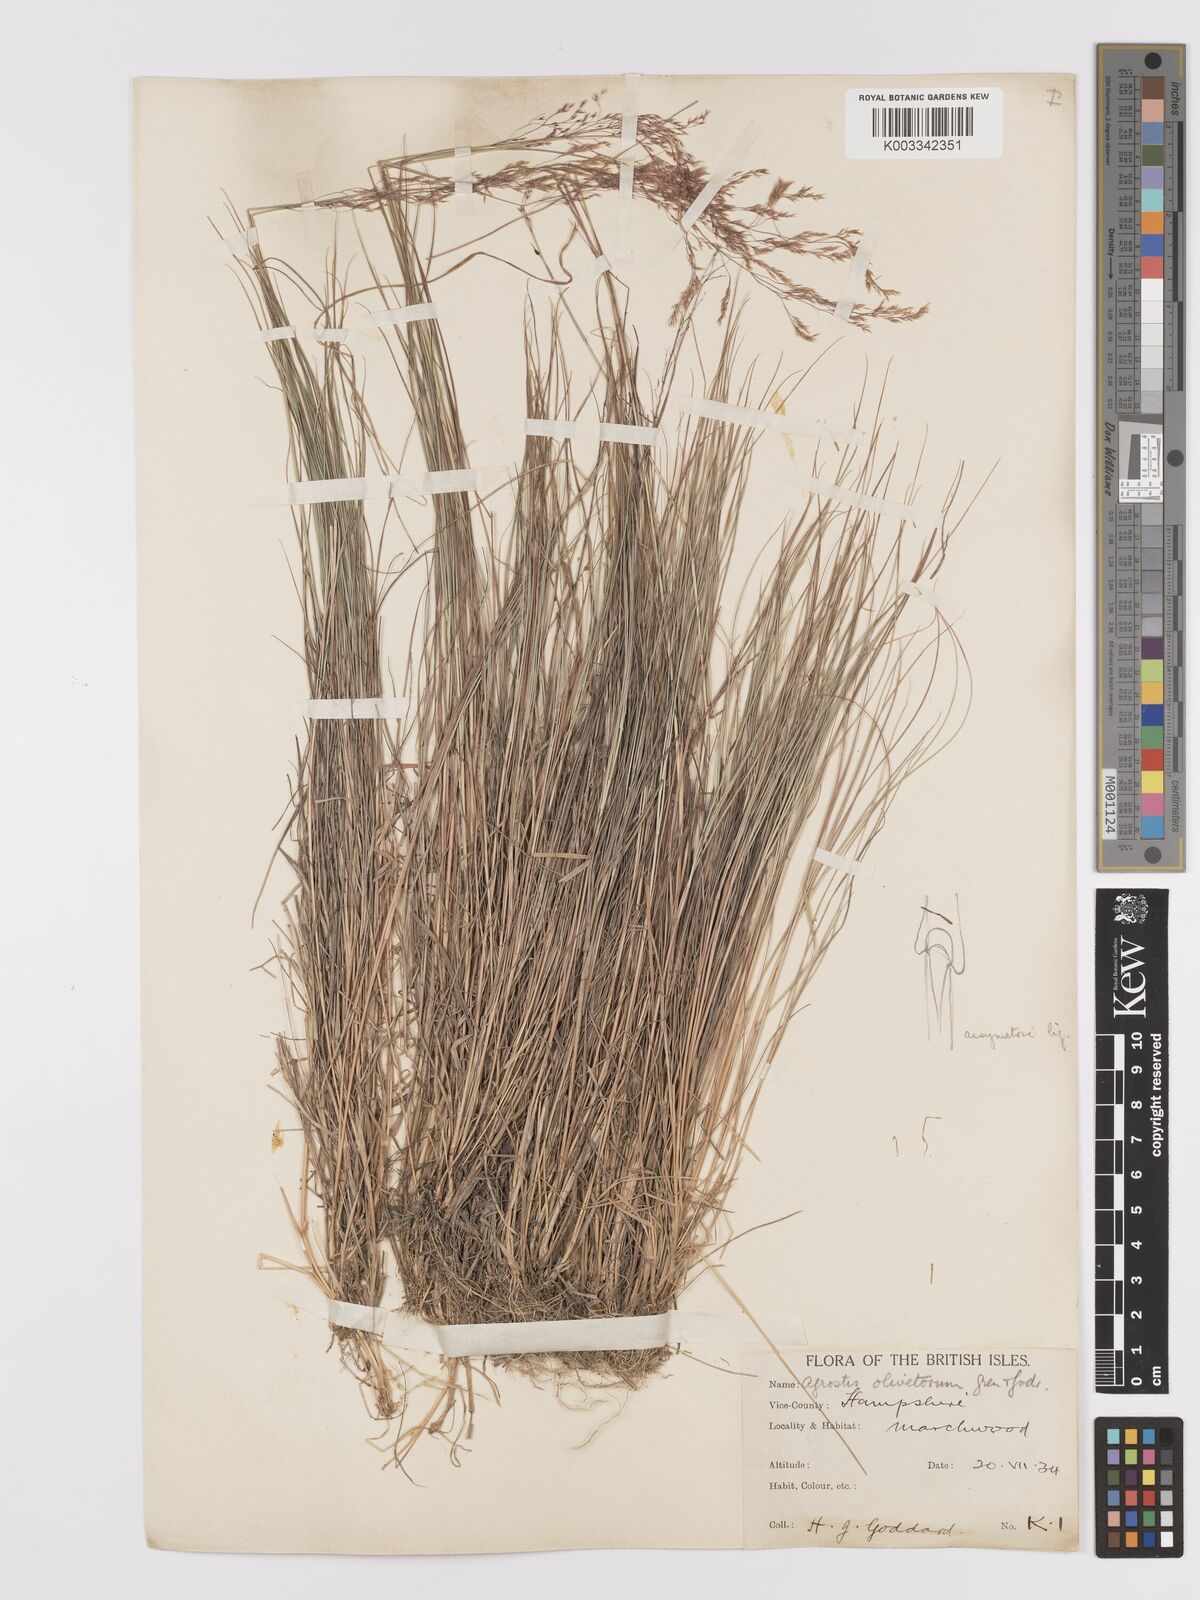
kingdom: Plantae
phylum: Tracheophyta
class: Liliopsida
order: Poales
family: Poaceae
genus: Agrostis
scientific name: Agrostis castellana
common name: Highland bent
